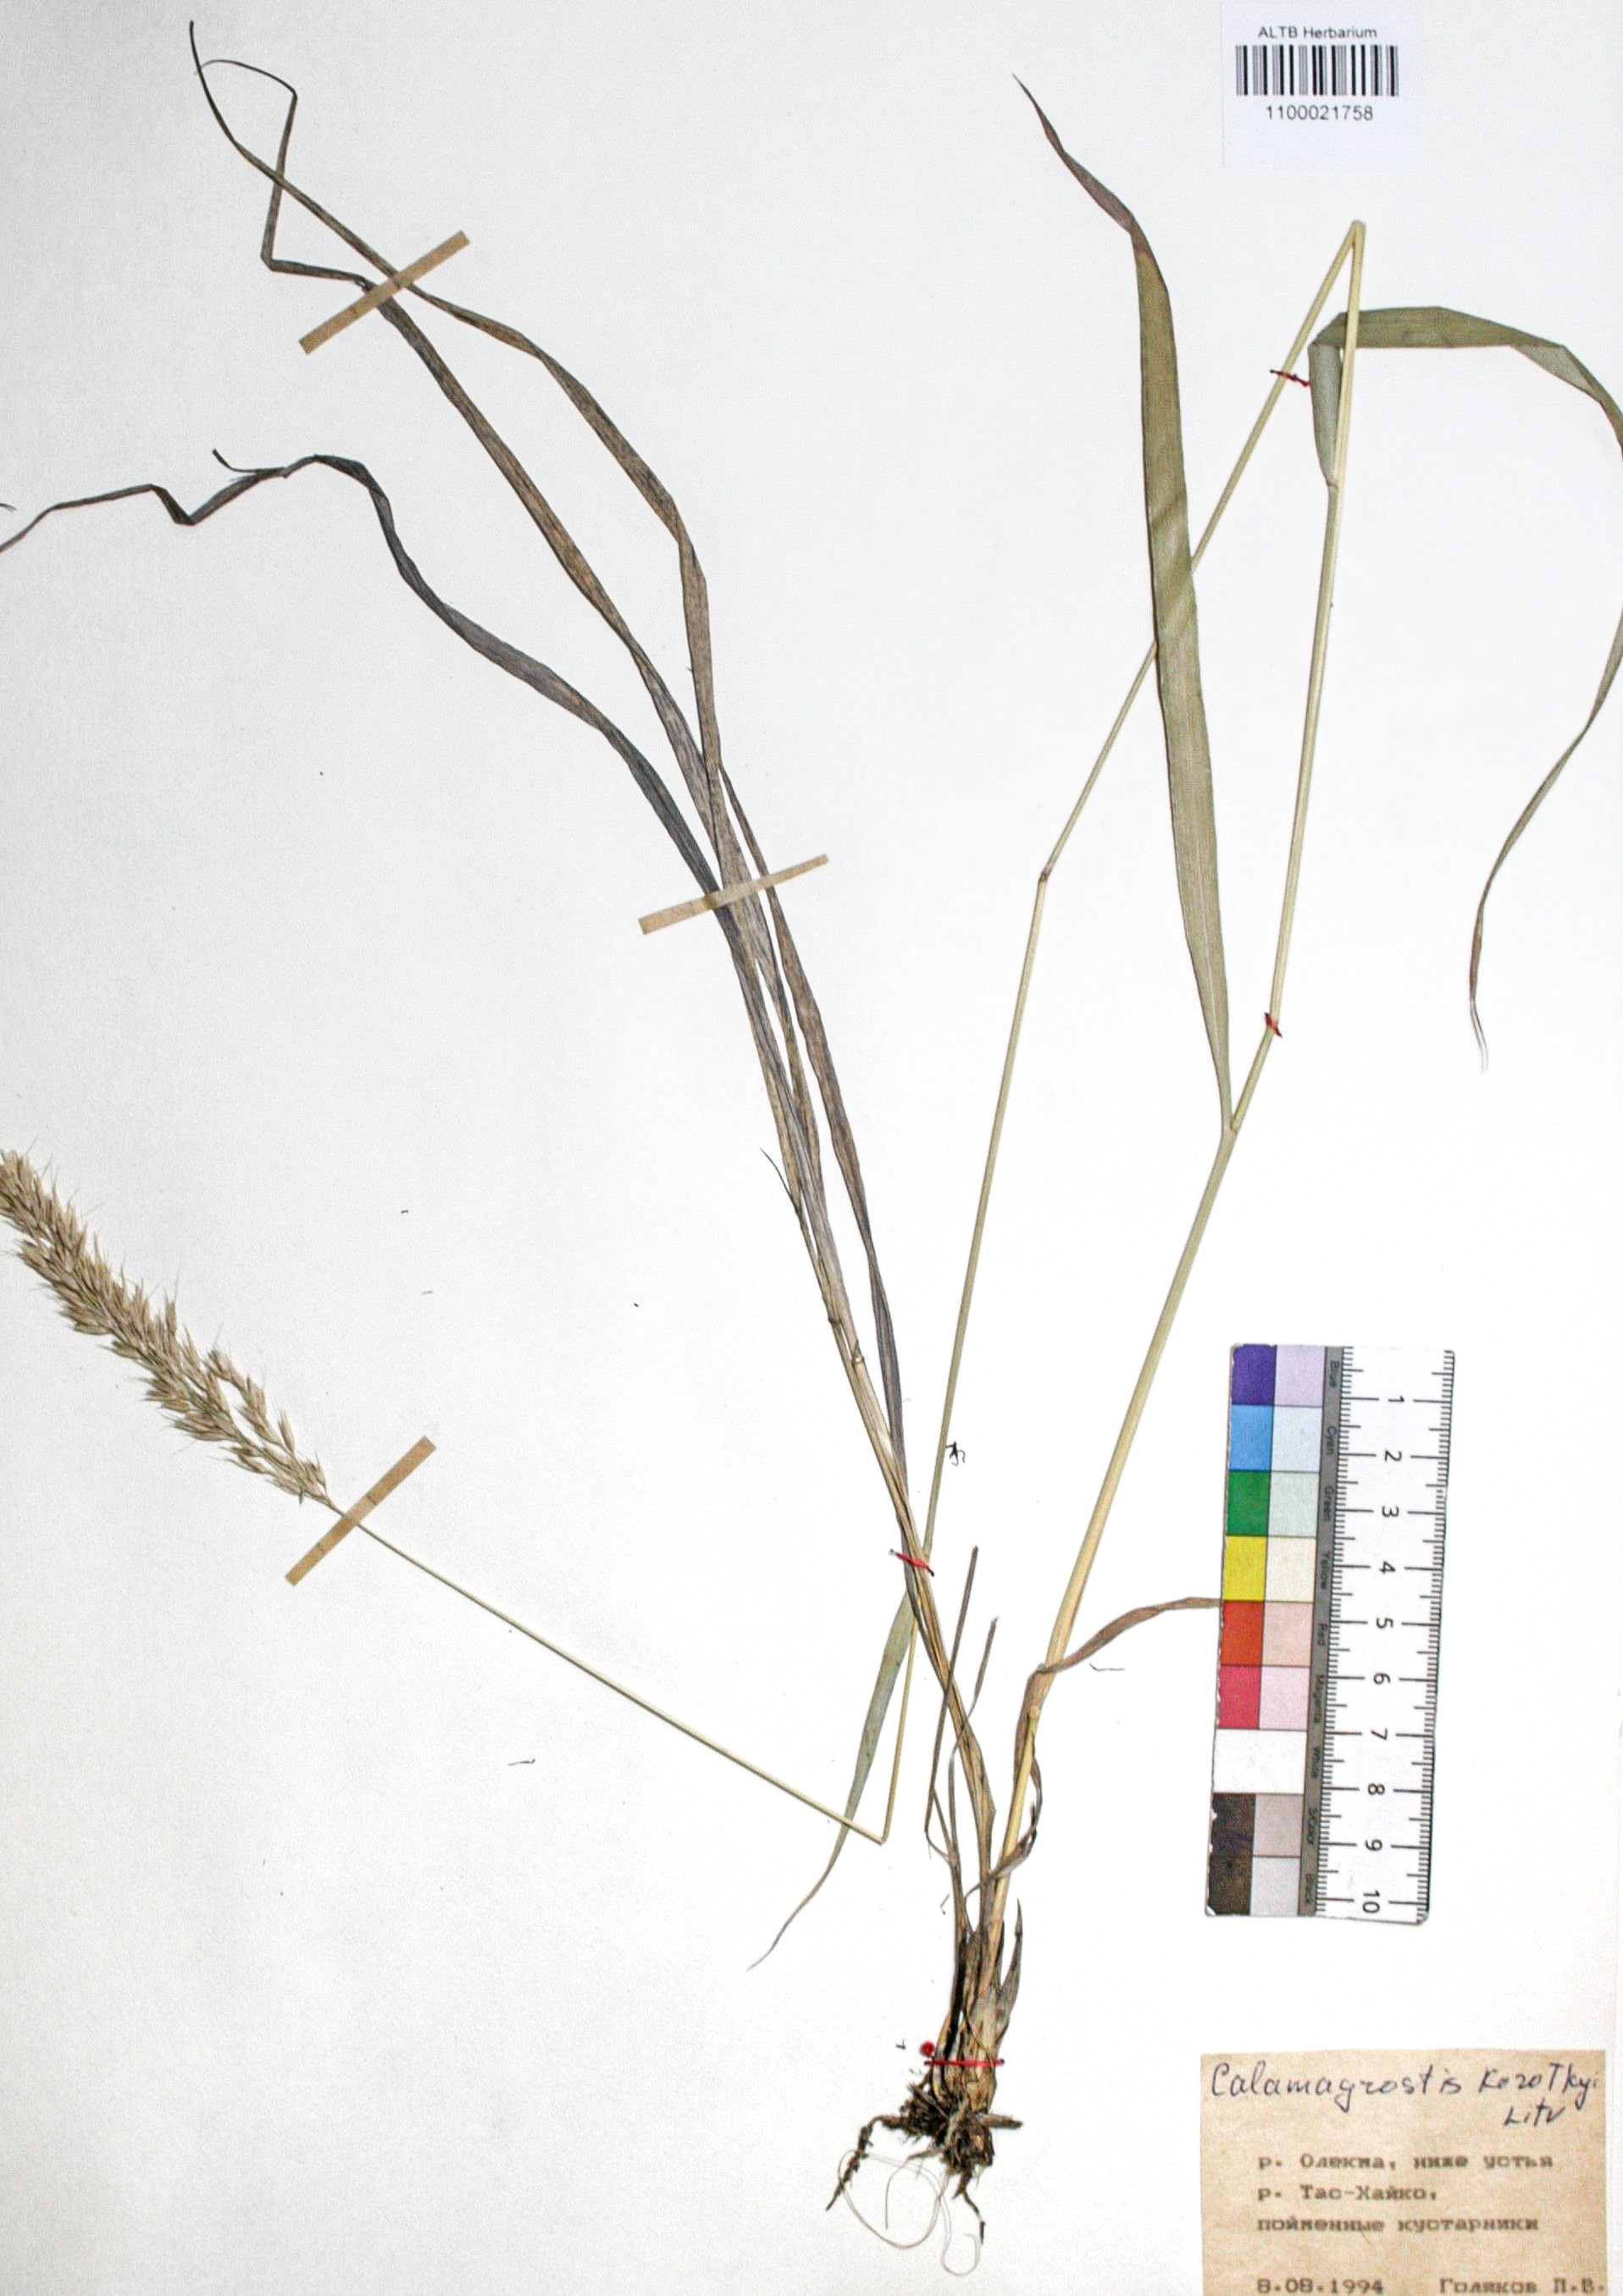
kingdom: Plantae
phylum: Tracheophyta
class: Liliopsida
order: Poales
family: Poaceae
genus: Calamagrostis
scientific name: Calamagrostis korotkyi
